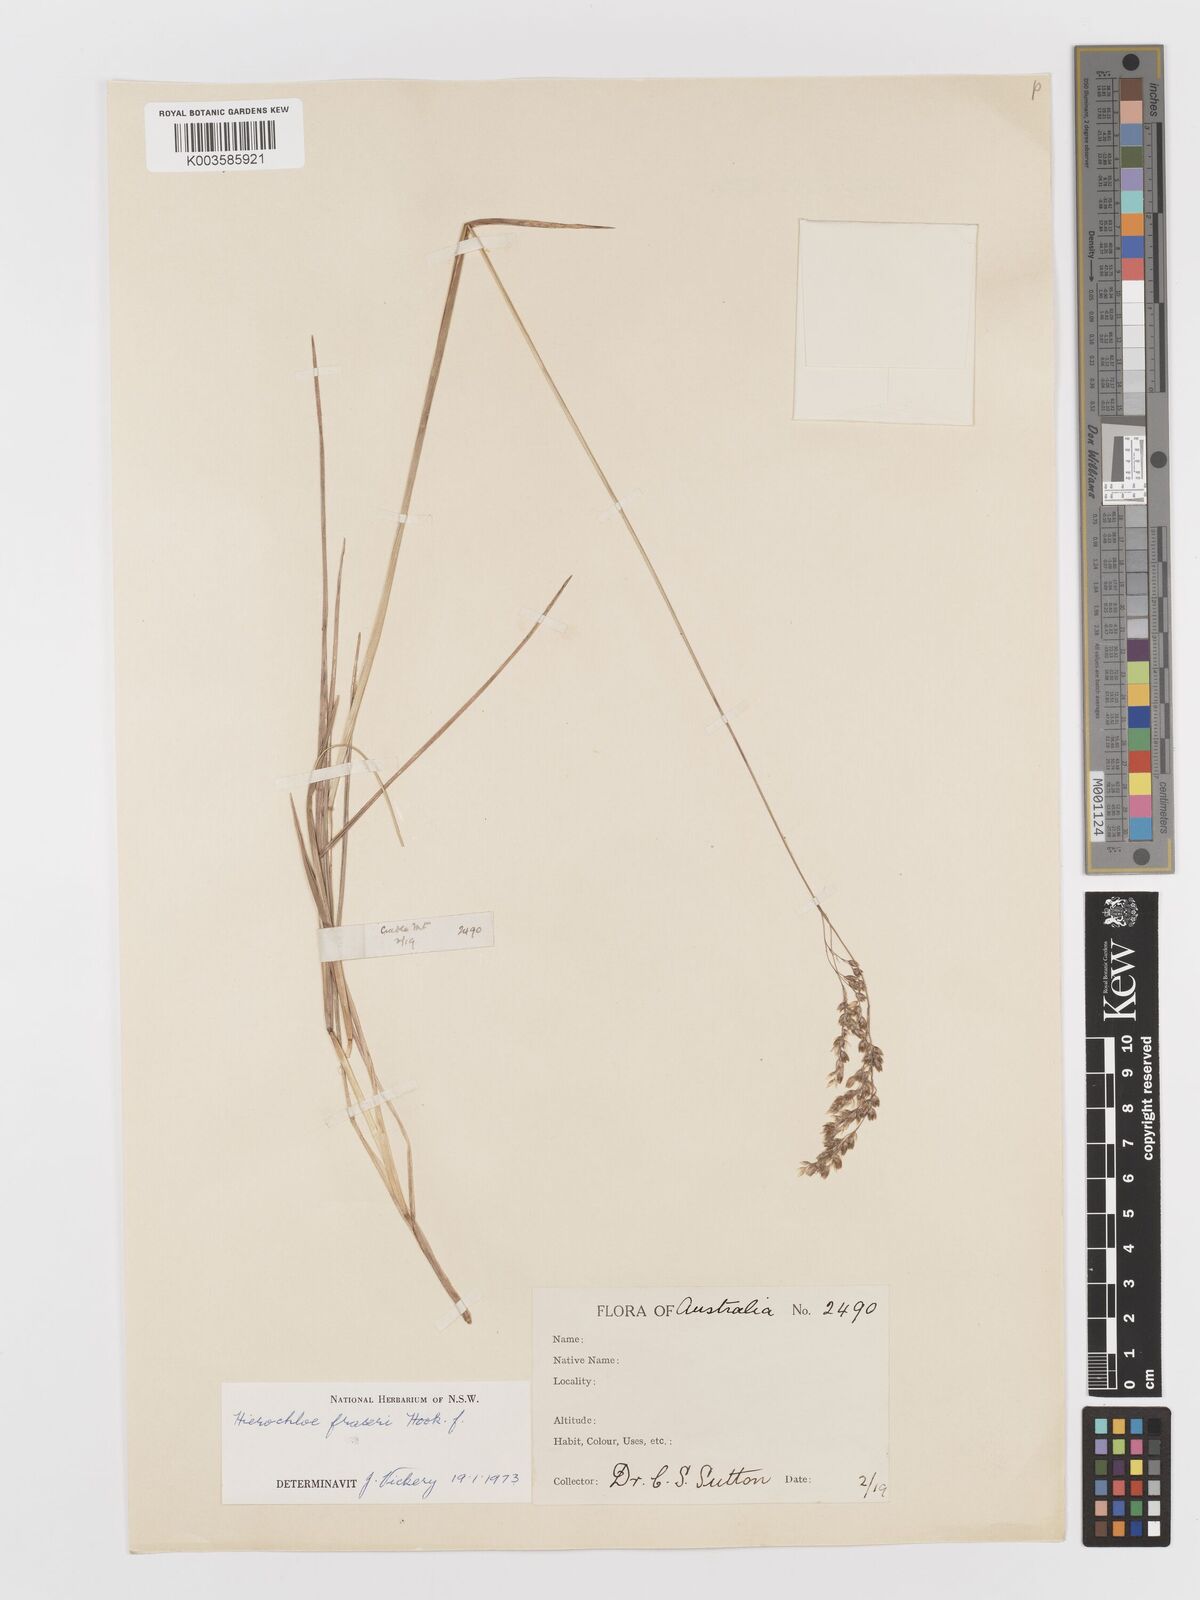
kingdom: Plantae
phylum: Tracheophyta
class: Liliopsida
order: Poales
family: Poaceae
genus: Hierochloe
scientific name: Hierochloe
